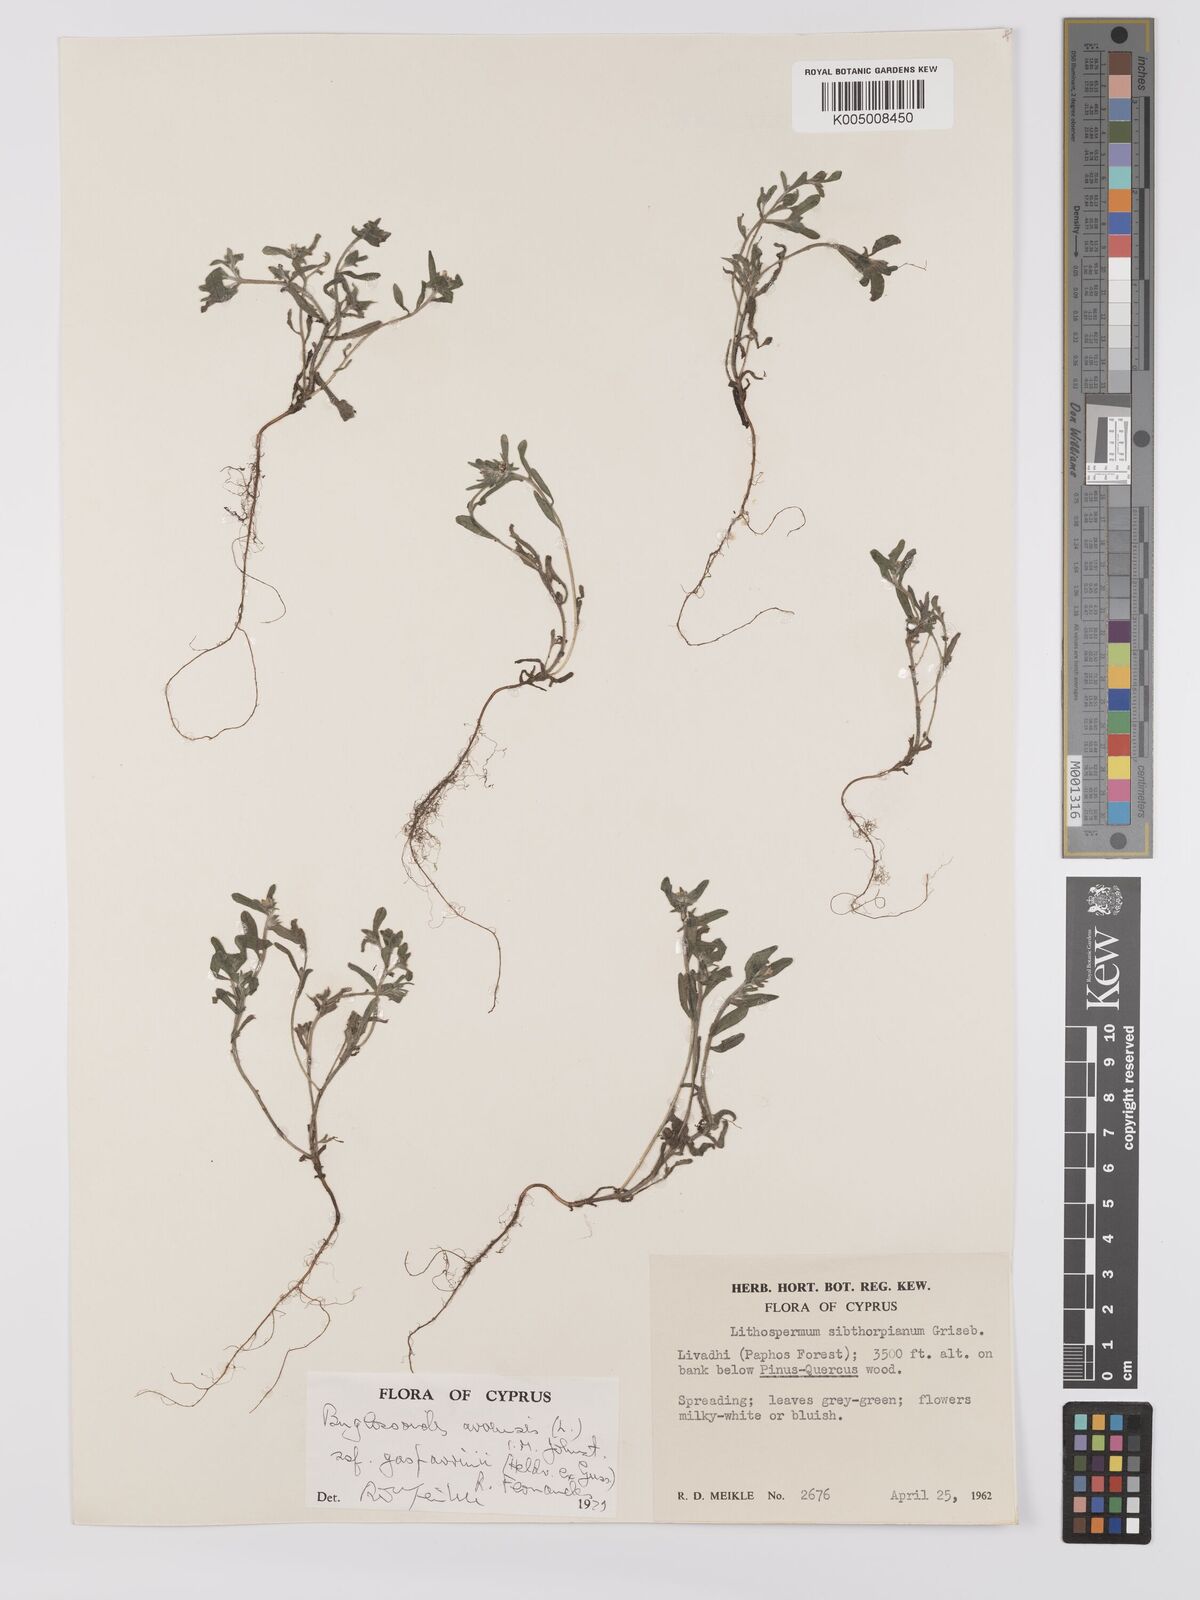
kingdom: Plantae
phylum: Tracheophyta
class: Magnoliopsida
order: Boraginales
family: Boraginaceae
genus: Buglossoides
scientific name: Buglossoides incrassata
